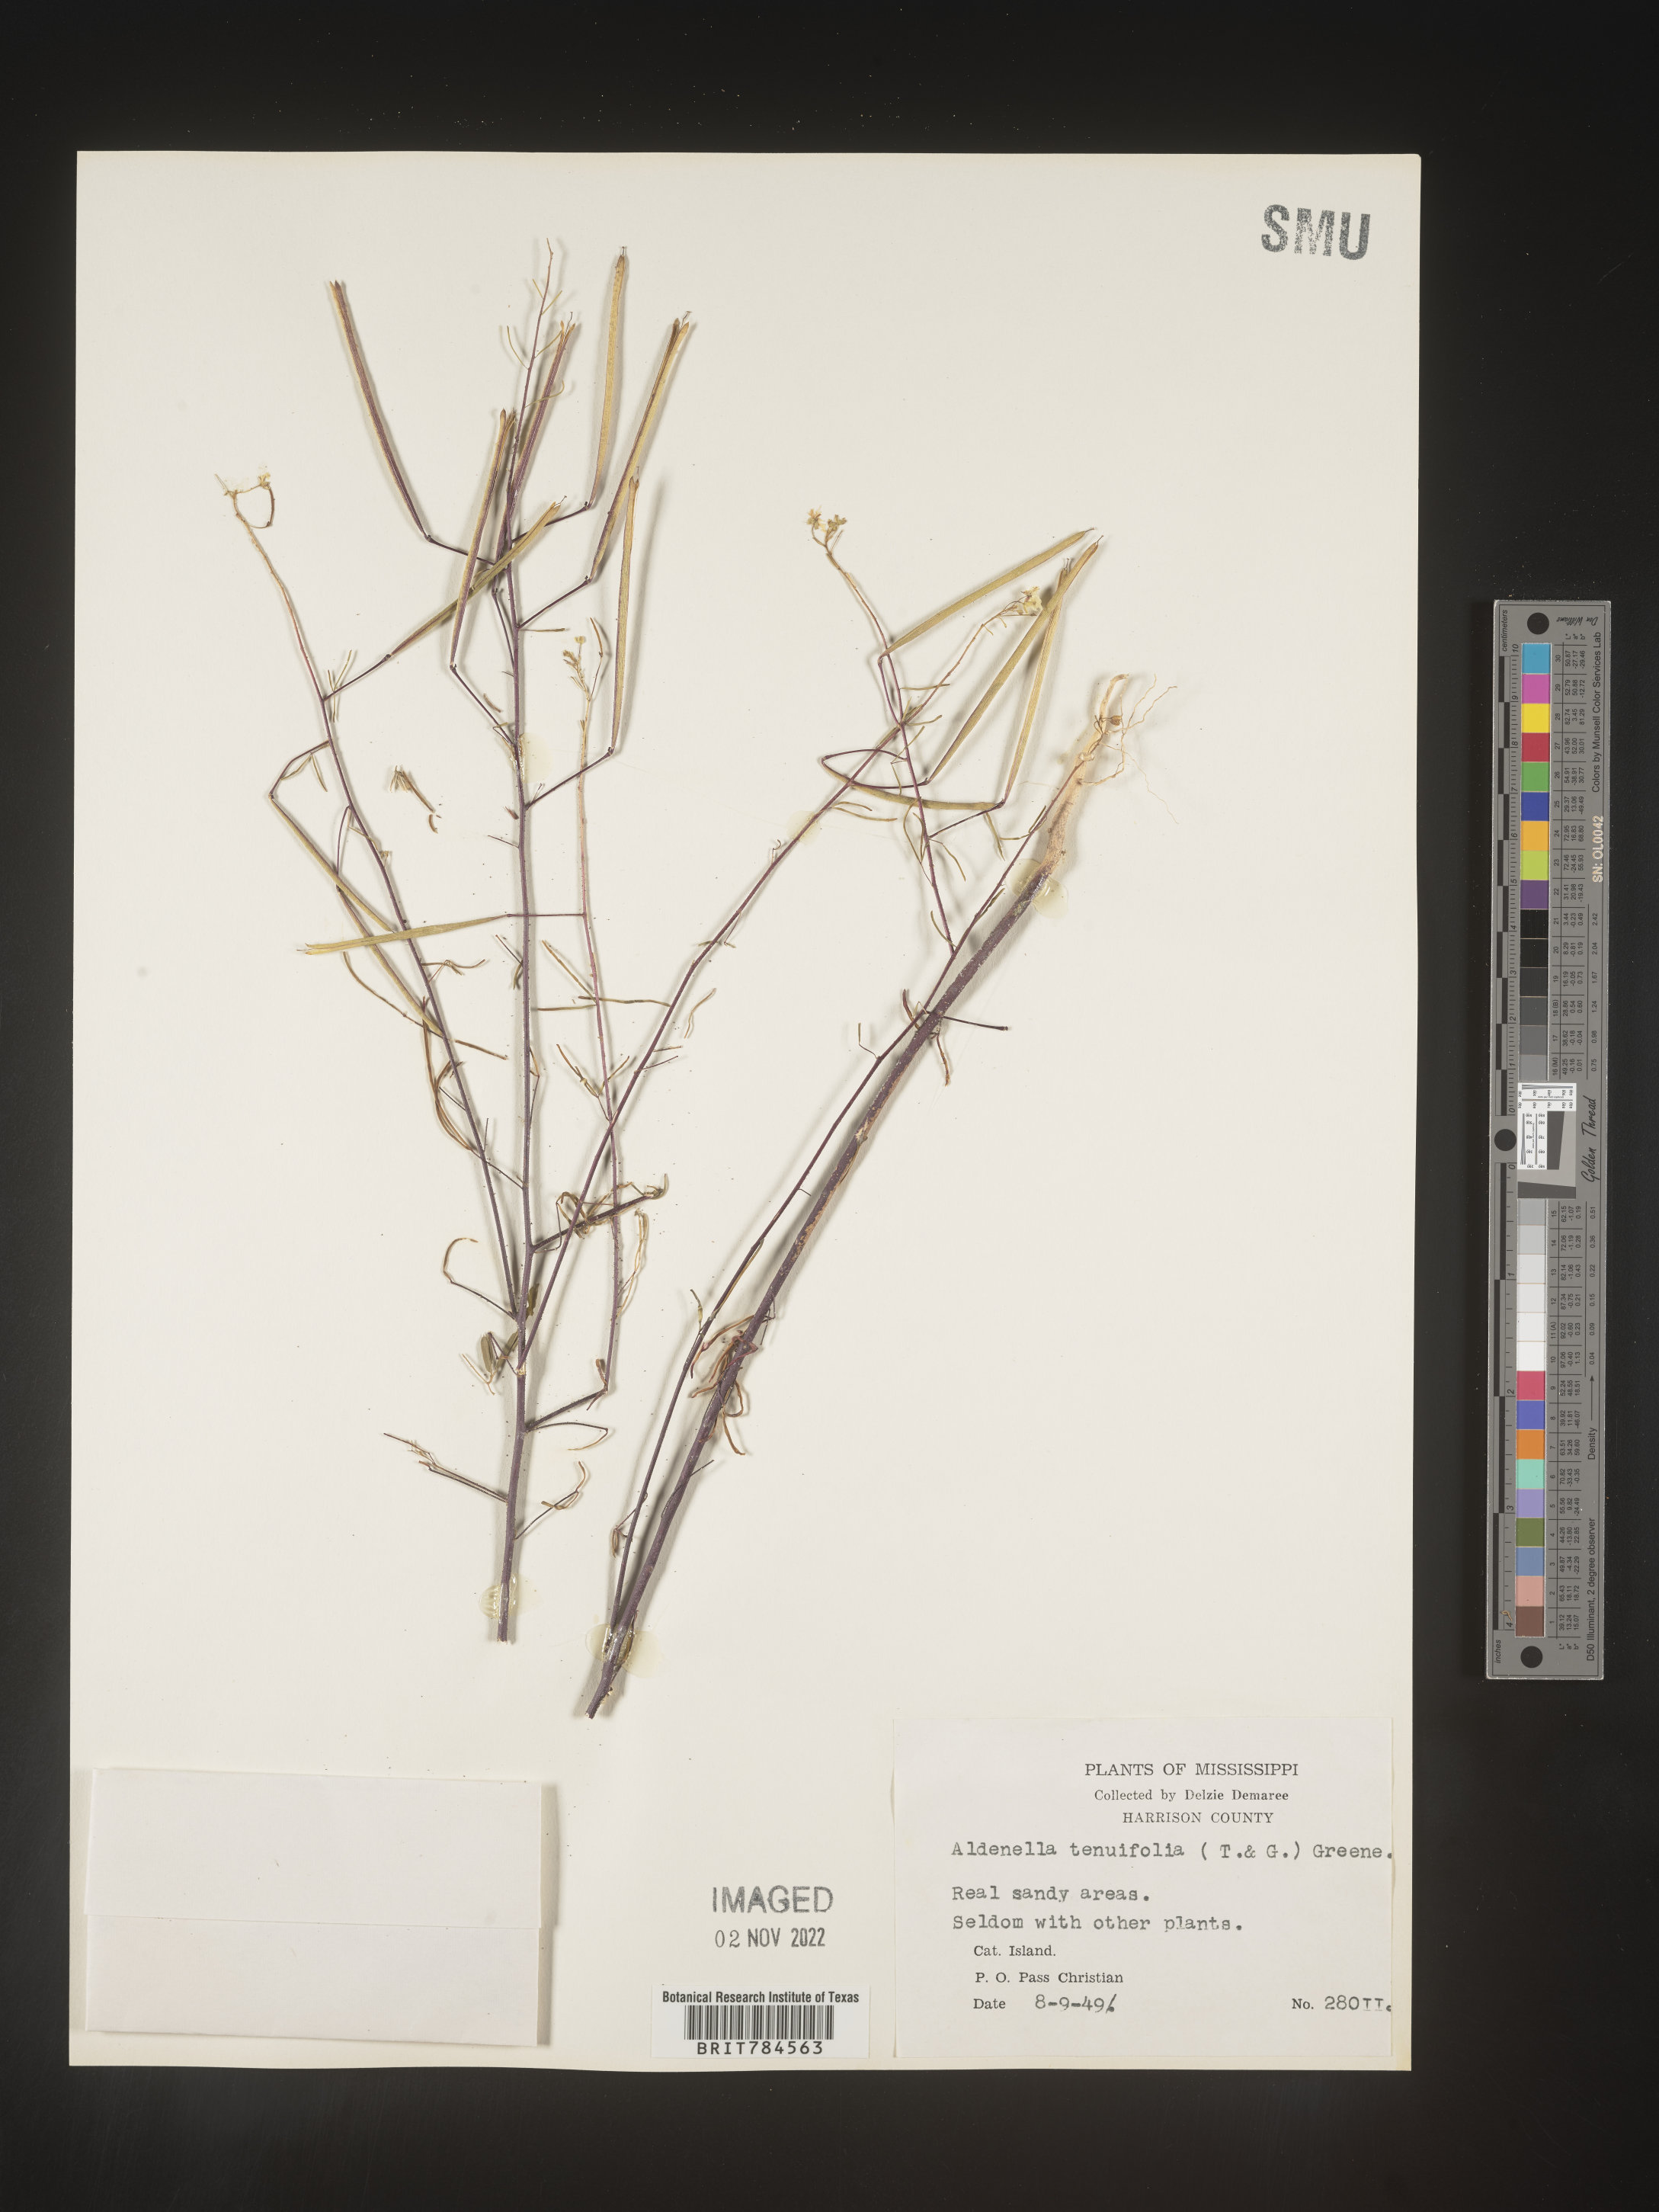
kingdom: Plantae
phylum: Tracheophyta
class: Magnoliopsida
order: Brassicales
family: Cleomaceae
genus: Polanisia
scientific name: Polanisia
